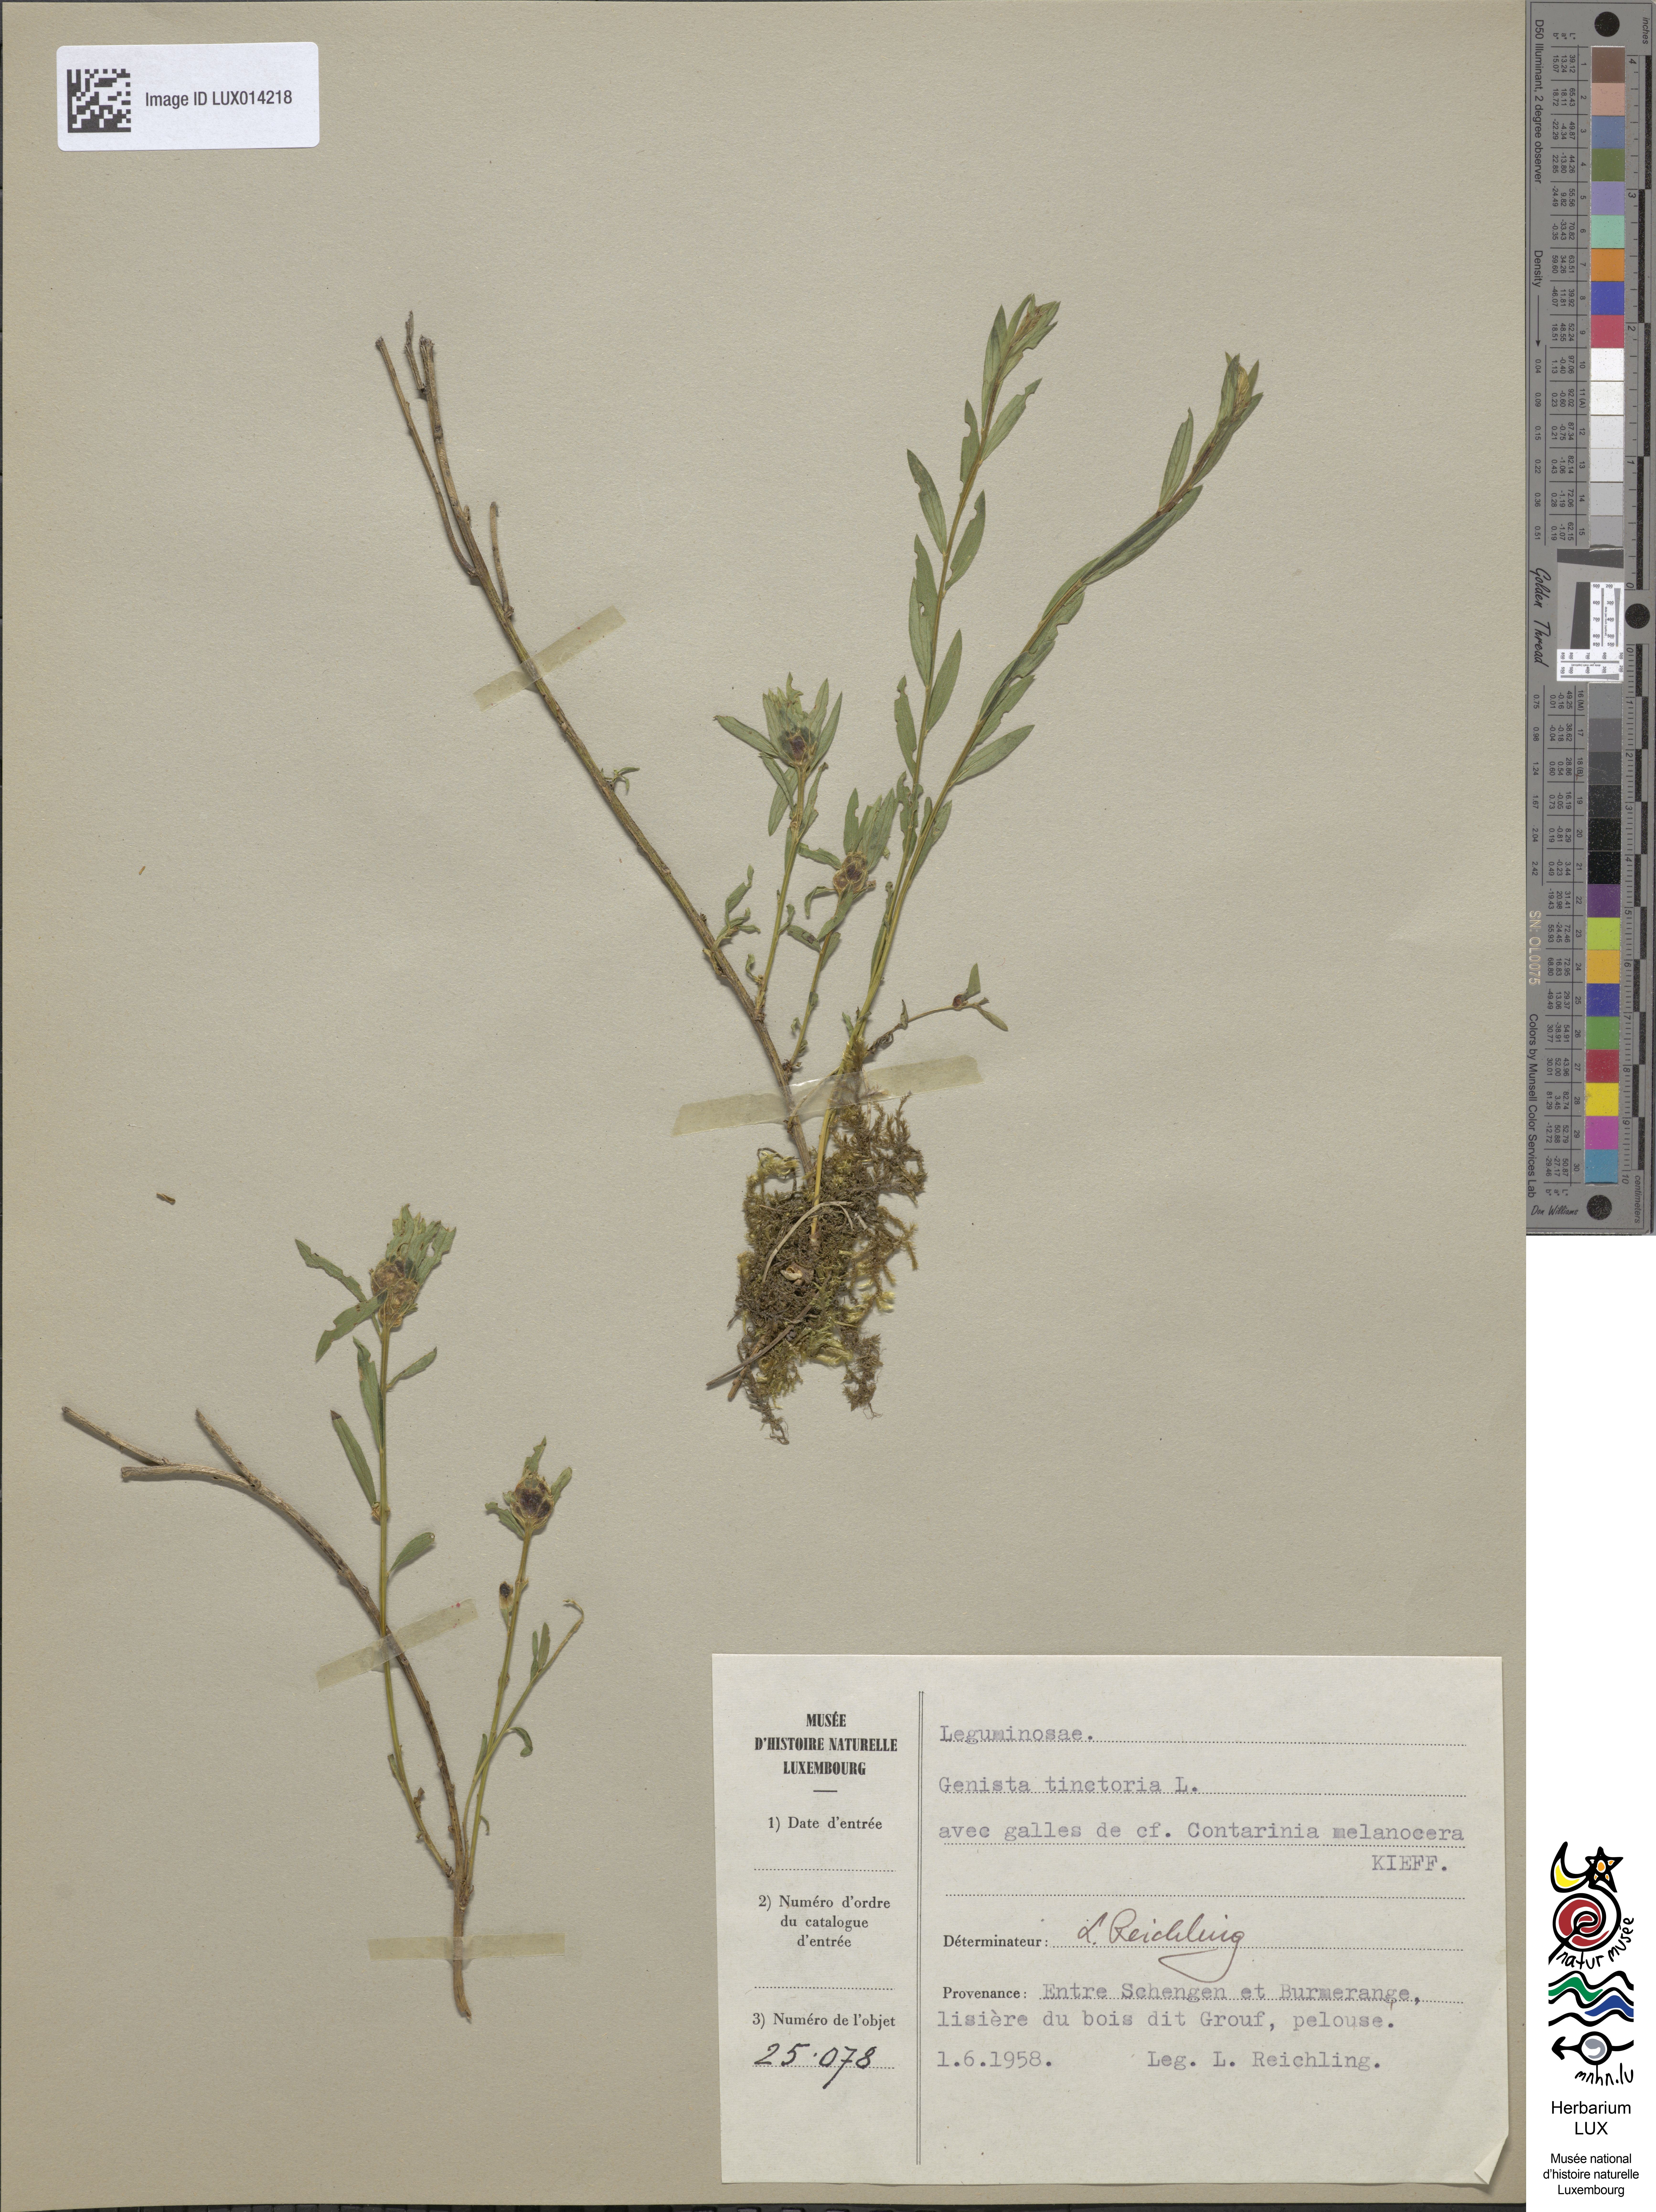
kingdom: Plantae
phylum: Tracheophyta
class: Magnoliopsida
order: Fabales
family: Fabaceae
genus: Genista
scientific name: Genista tinctoria
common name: Dyer's greenweed
